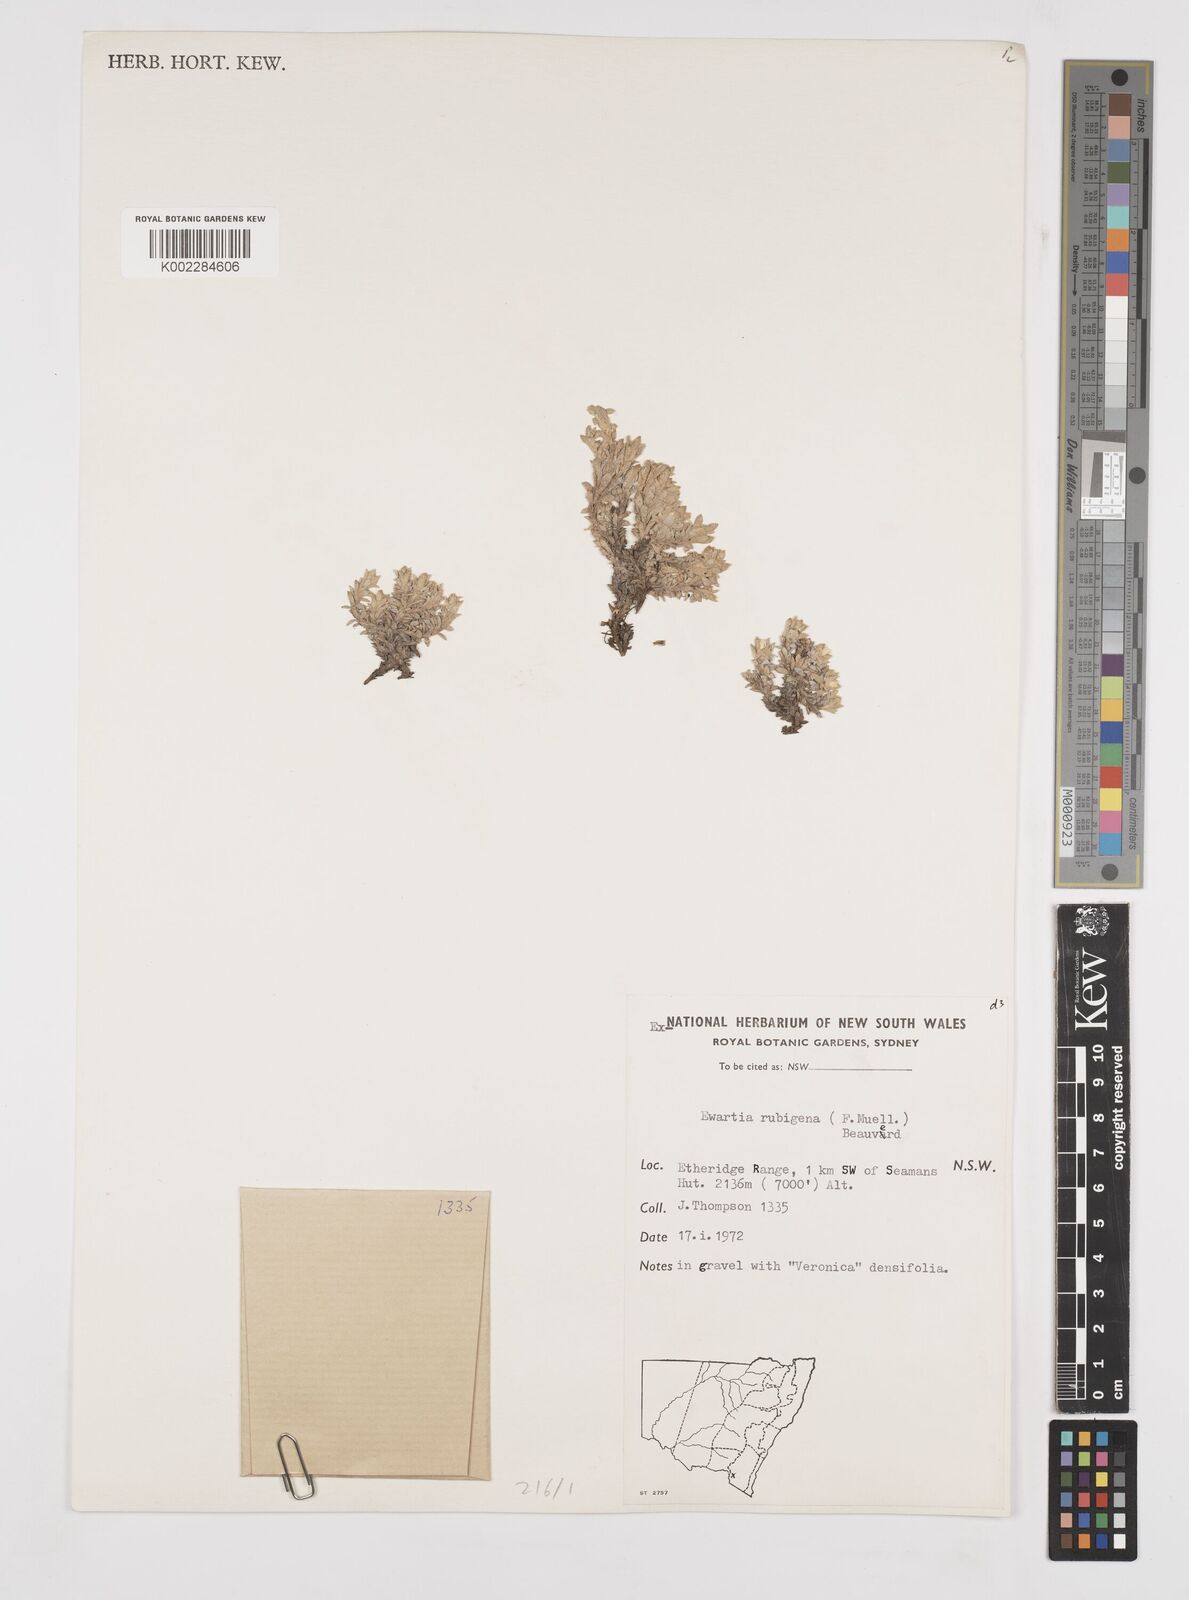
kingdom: Plantae
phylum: Tracheophyta
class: Magnoliopsida
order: Asterales
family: Asteraceae
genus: Ewartia
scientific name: Ewartia nubigena
